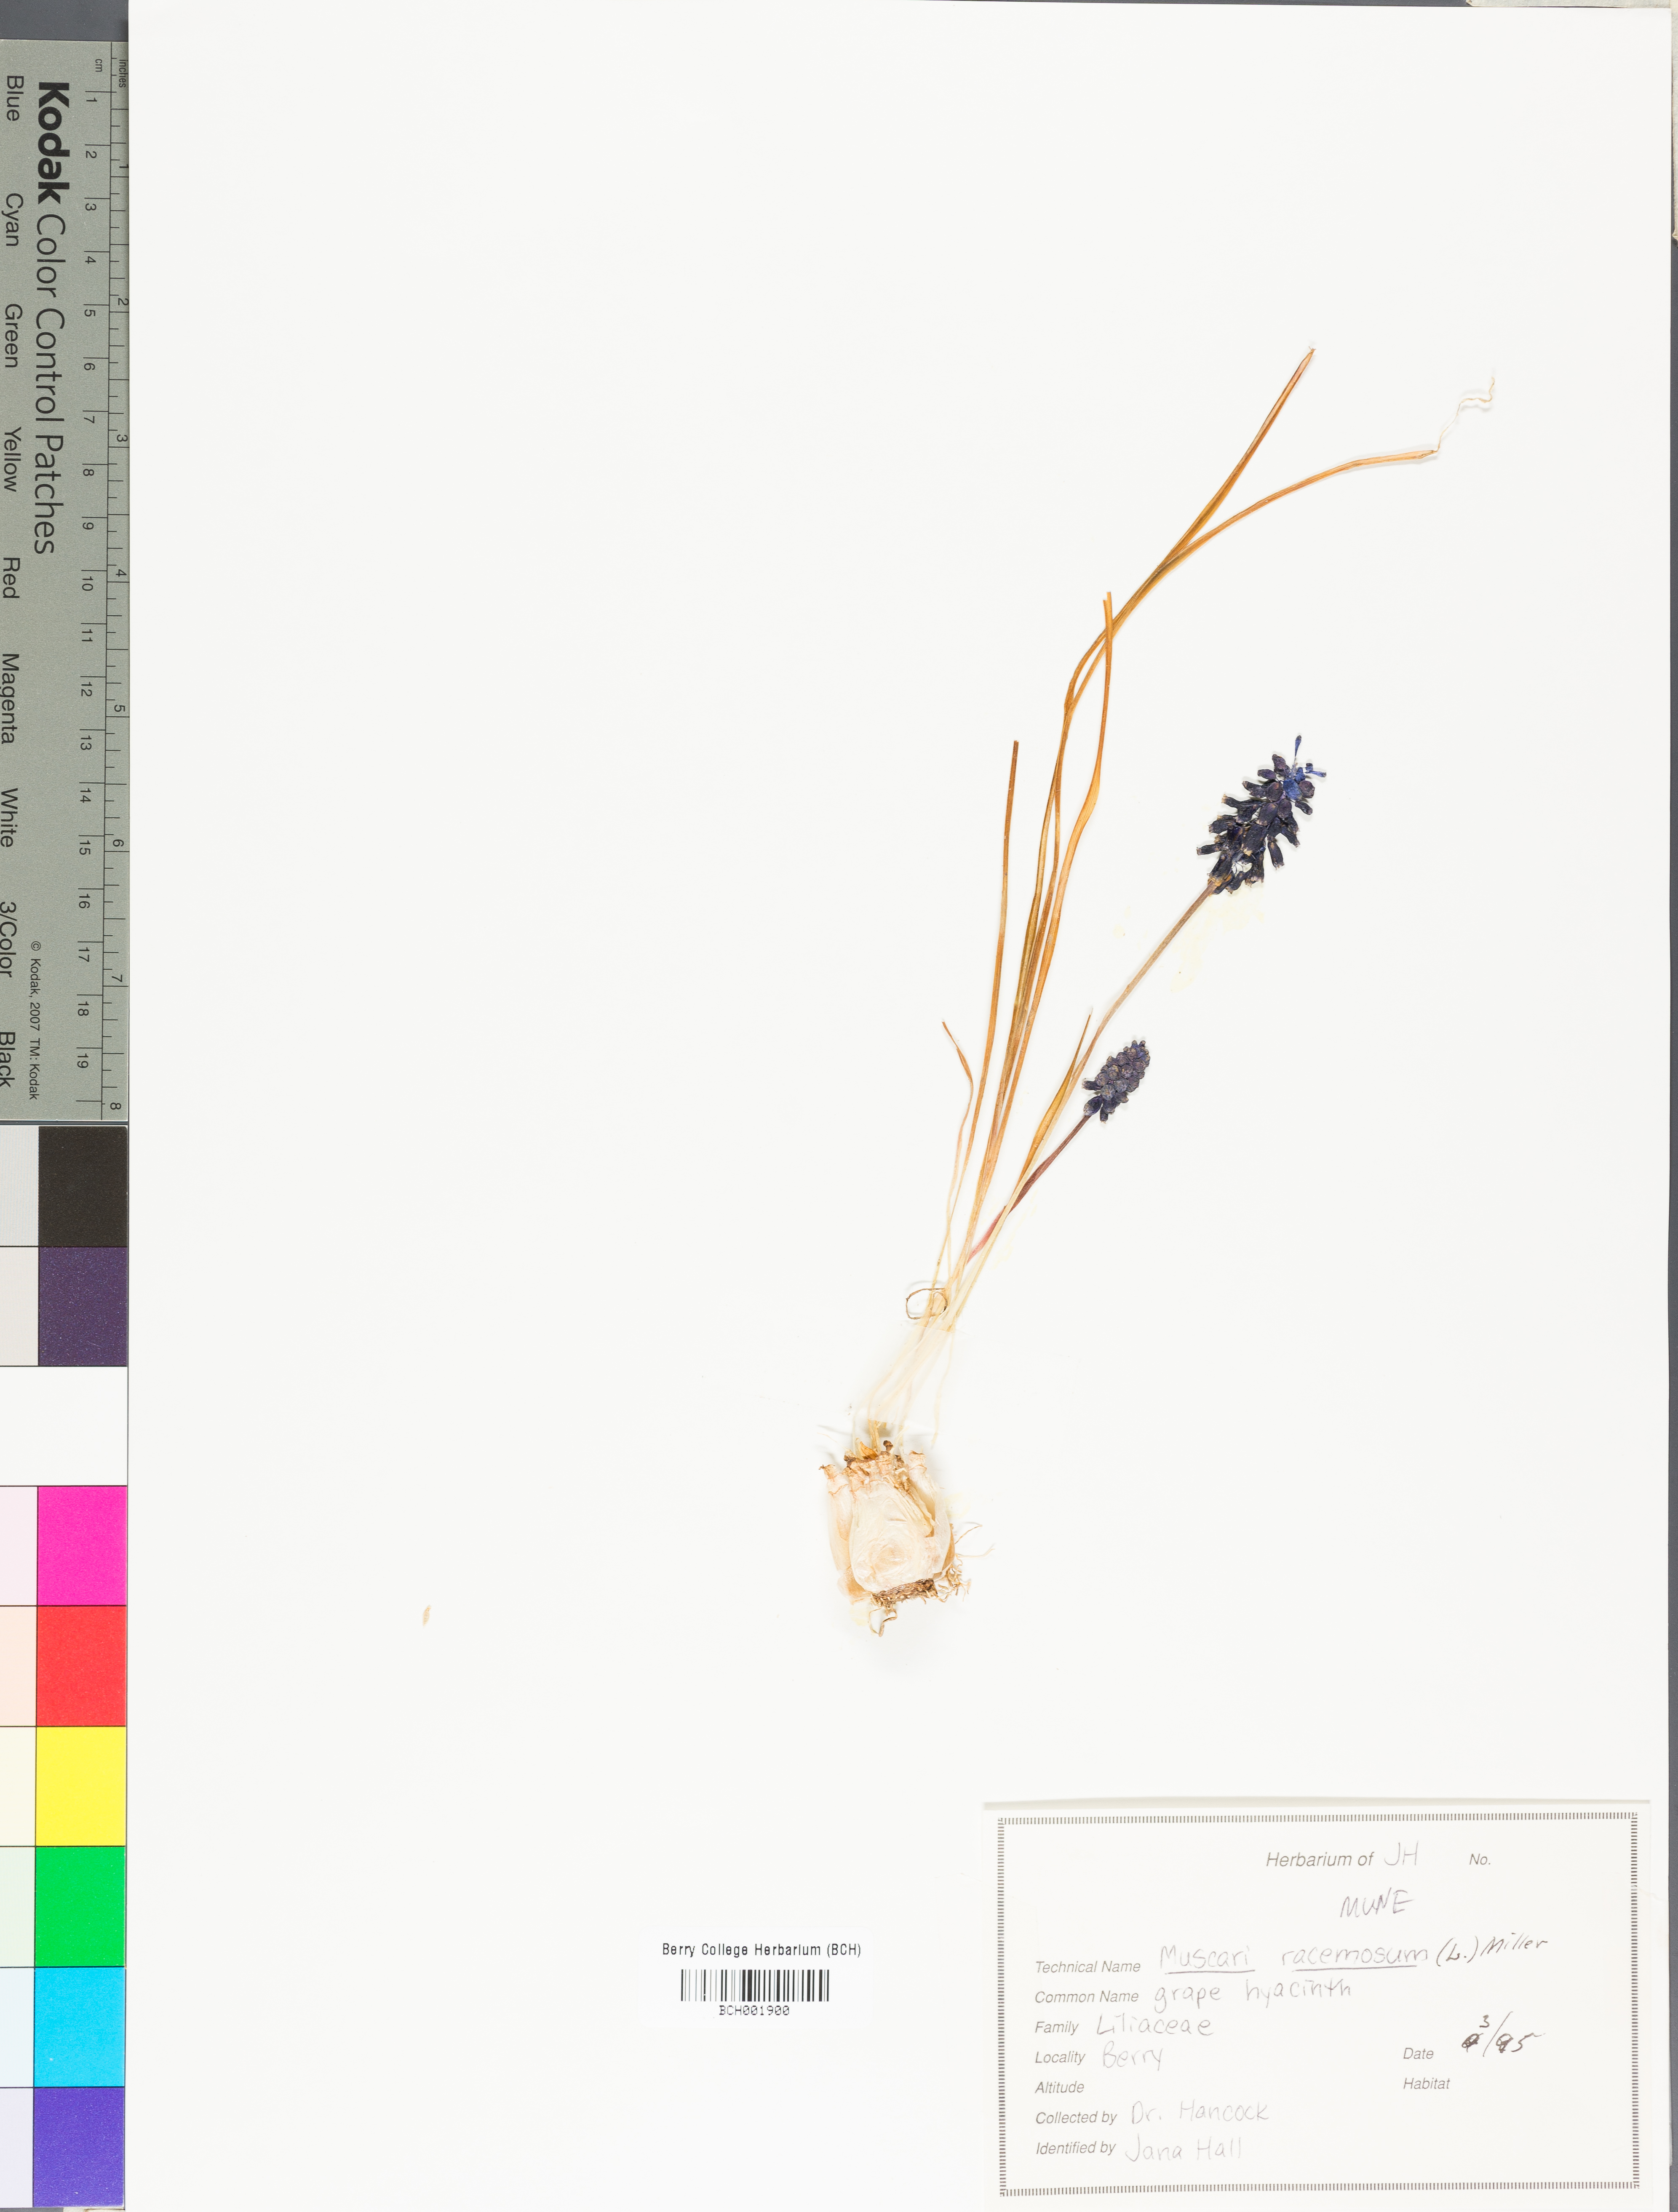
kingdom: Plantae
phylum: Tracheophyta
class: Liliopsida
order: Asparagales
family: Asparagaceae
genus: Muscari
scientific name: Muscari neglectum
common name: Grape-hyacinth
